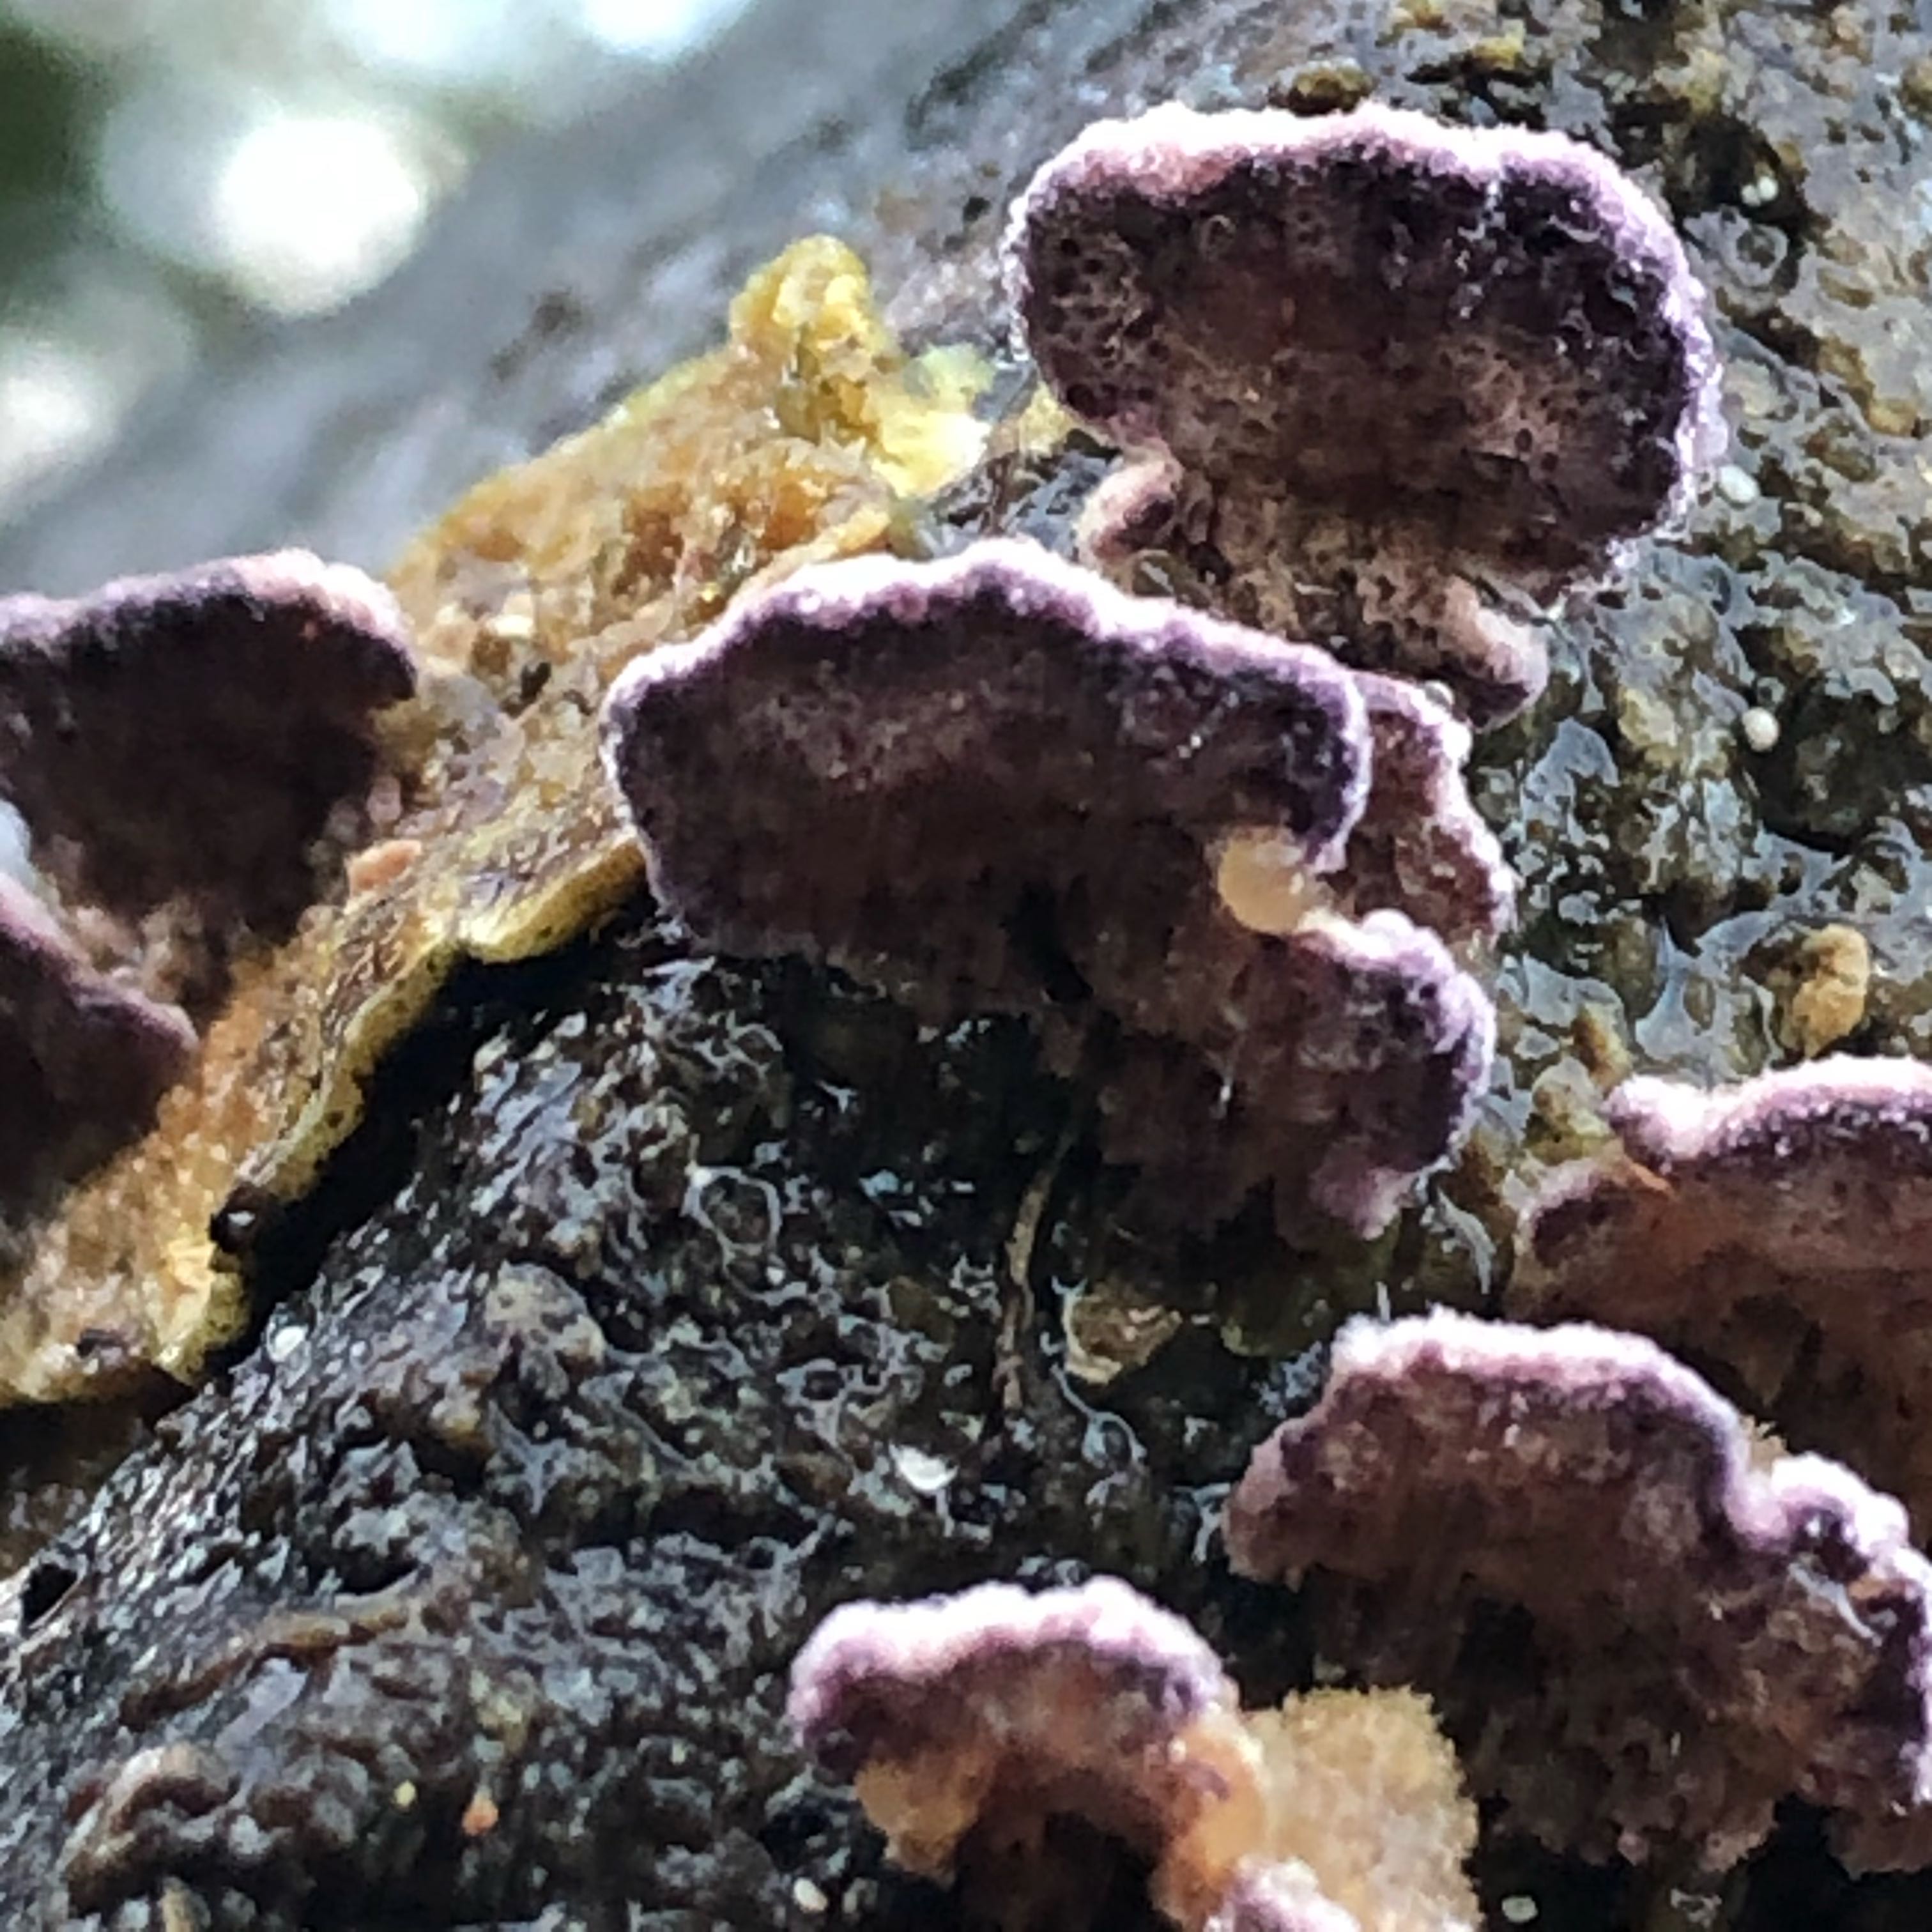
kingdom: Fungi
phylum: Basidiomycota
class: Agaricomycetes
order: Hymenochaetales
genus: Trichaptum
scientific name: Trichaptum abietinum
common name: almindelig violporesvamp
